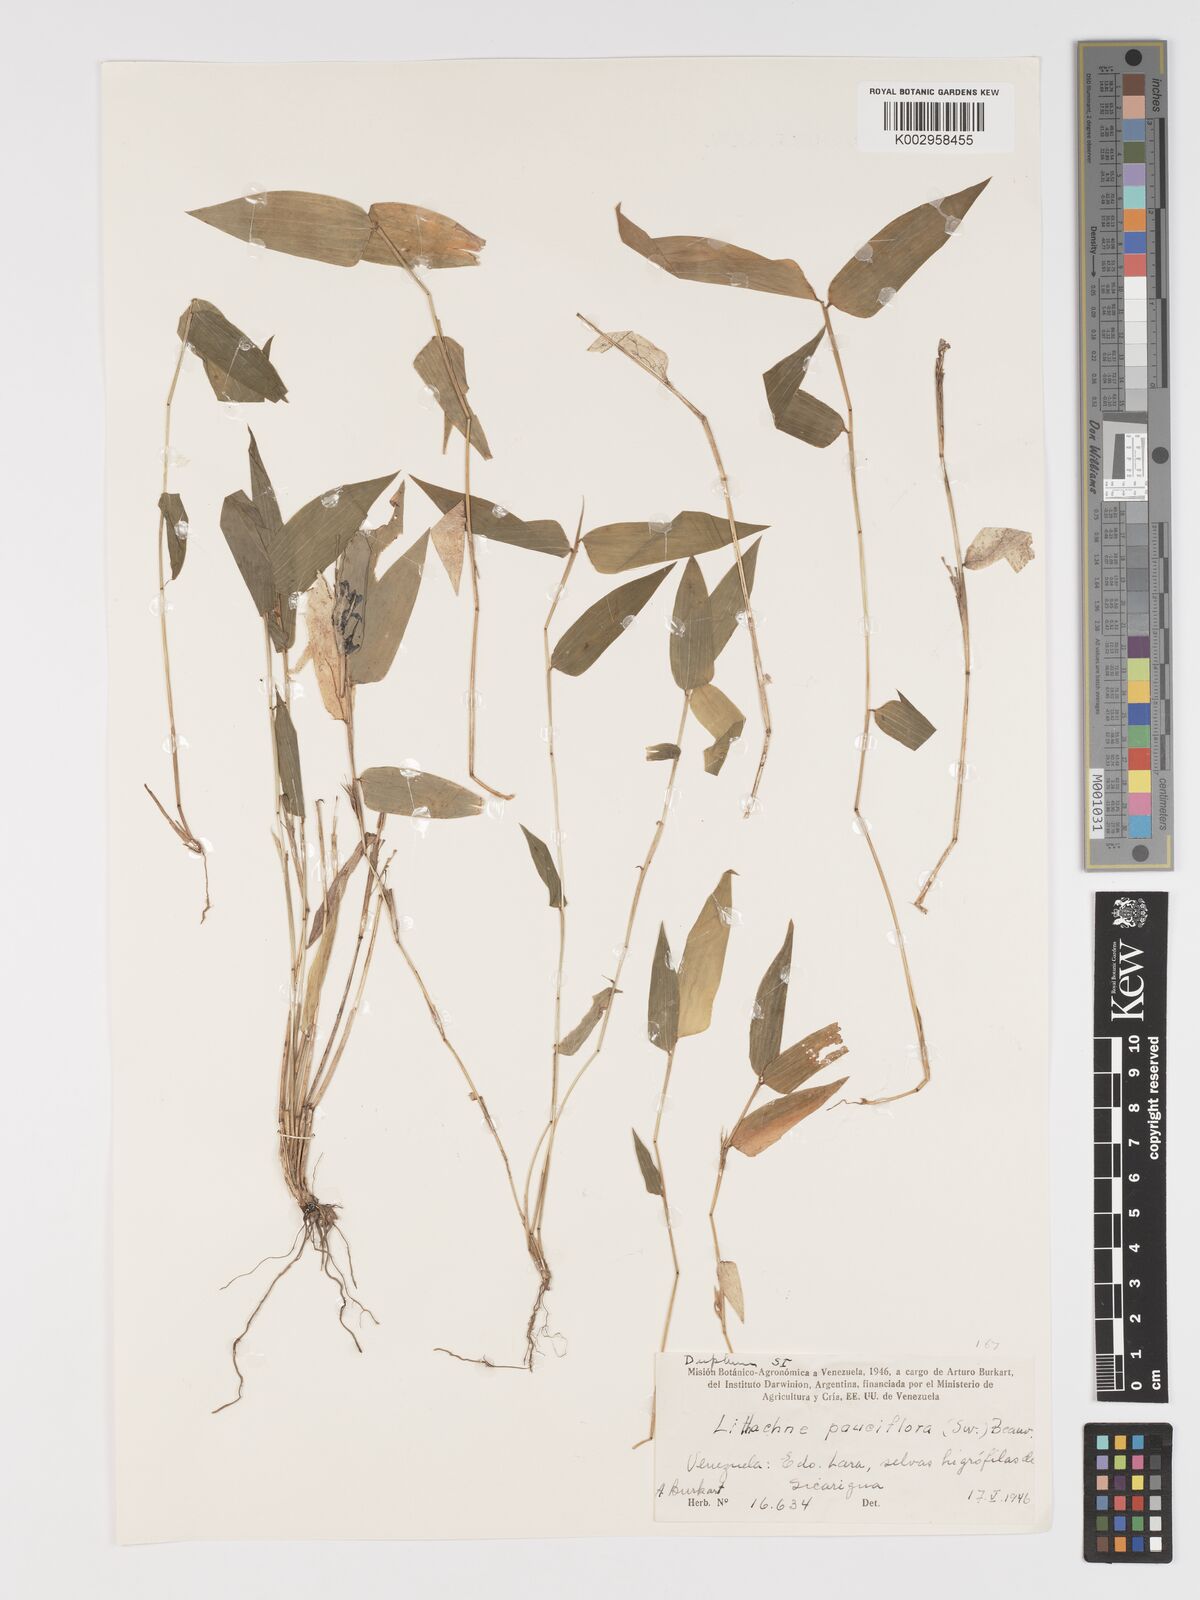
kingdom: Plantae
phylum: Tracheophyta
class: Liliopsida
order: Poales
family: Poaceae
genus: Lithachne
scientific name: Lithachne pauciflora
